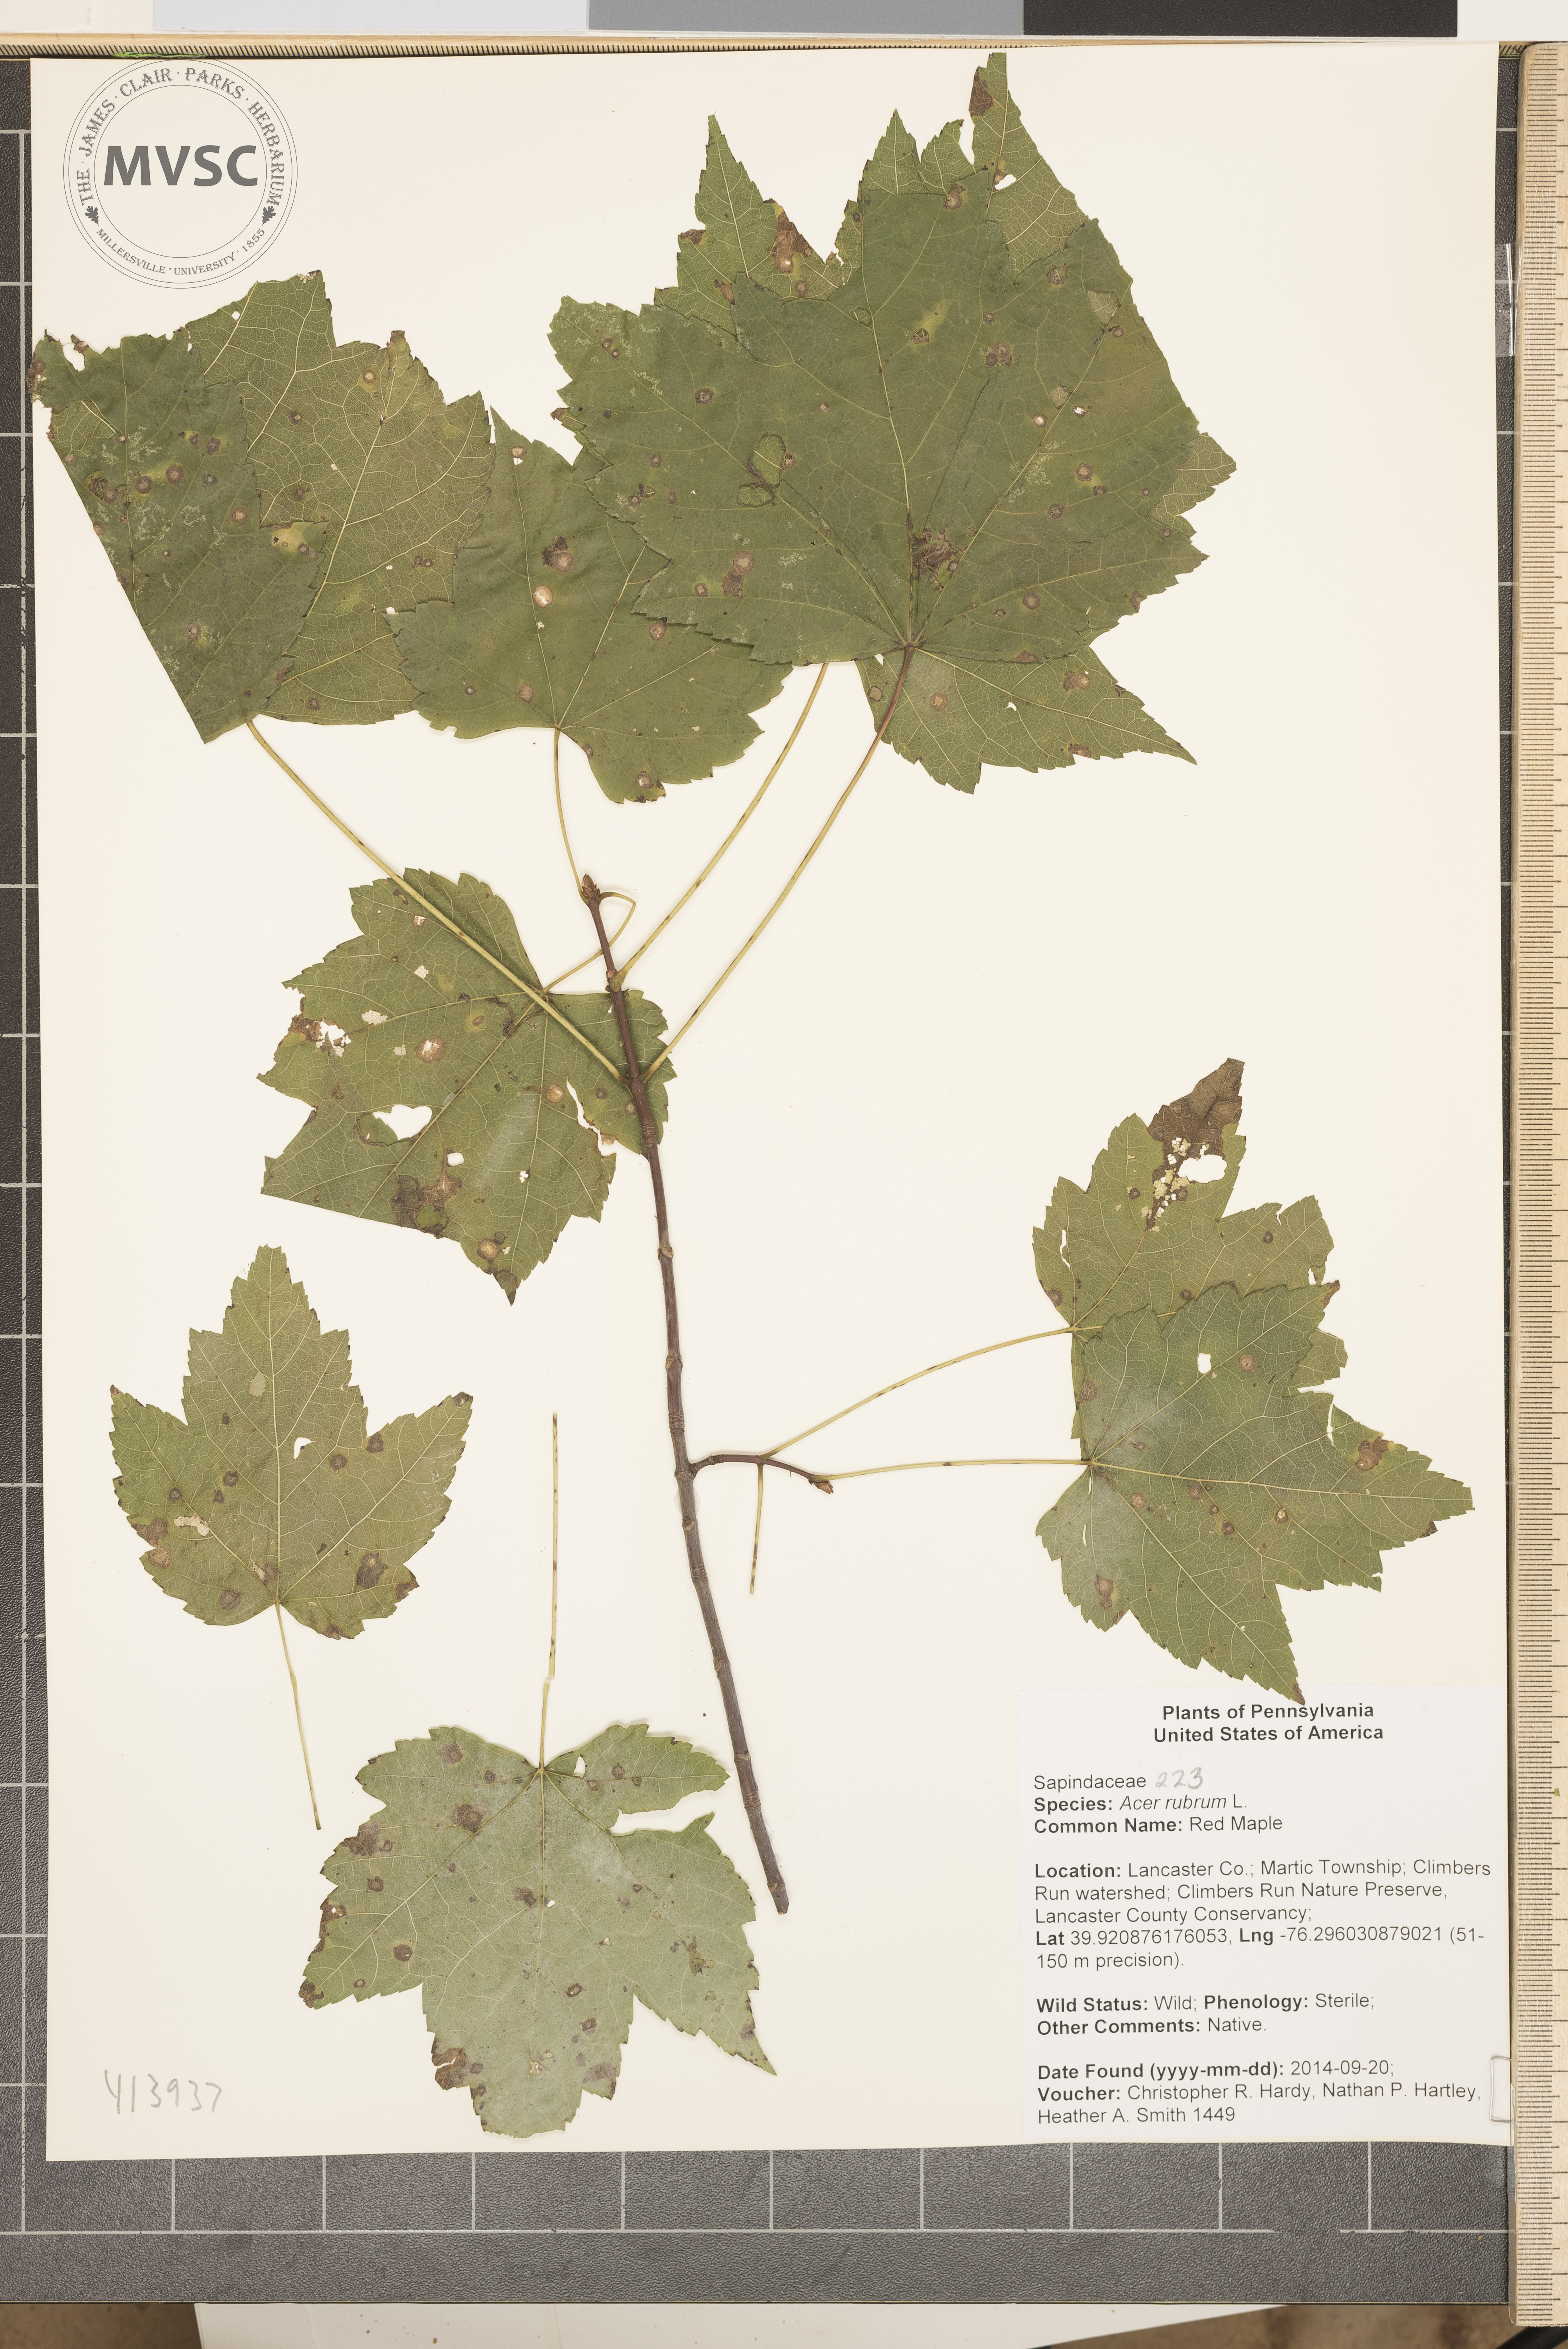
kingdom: Plantae
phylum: Tracheophyta
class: Magnoliopsida
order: Sapindales
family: Sapindaceae
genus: Acer
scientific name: Acer rubrum
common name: red maple
